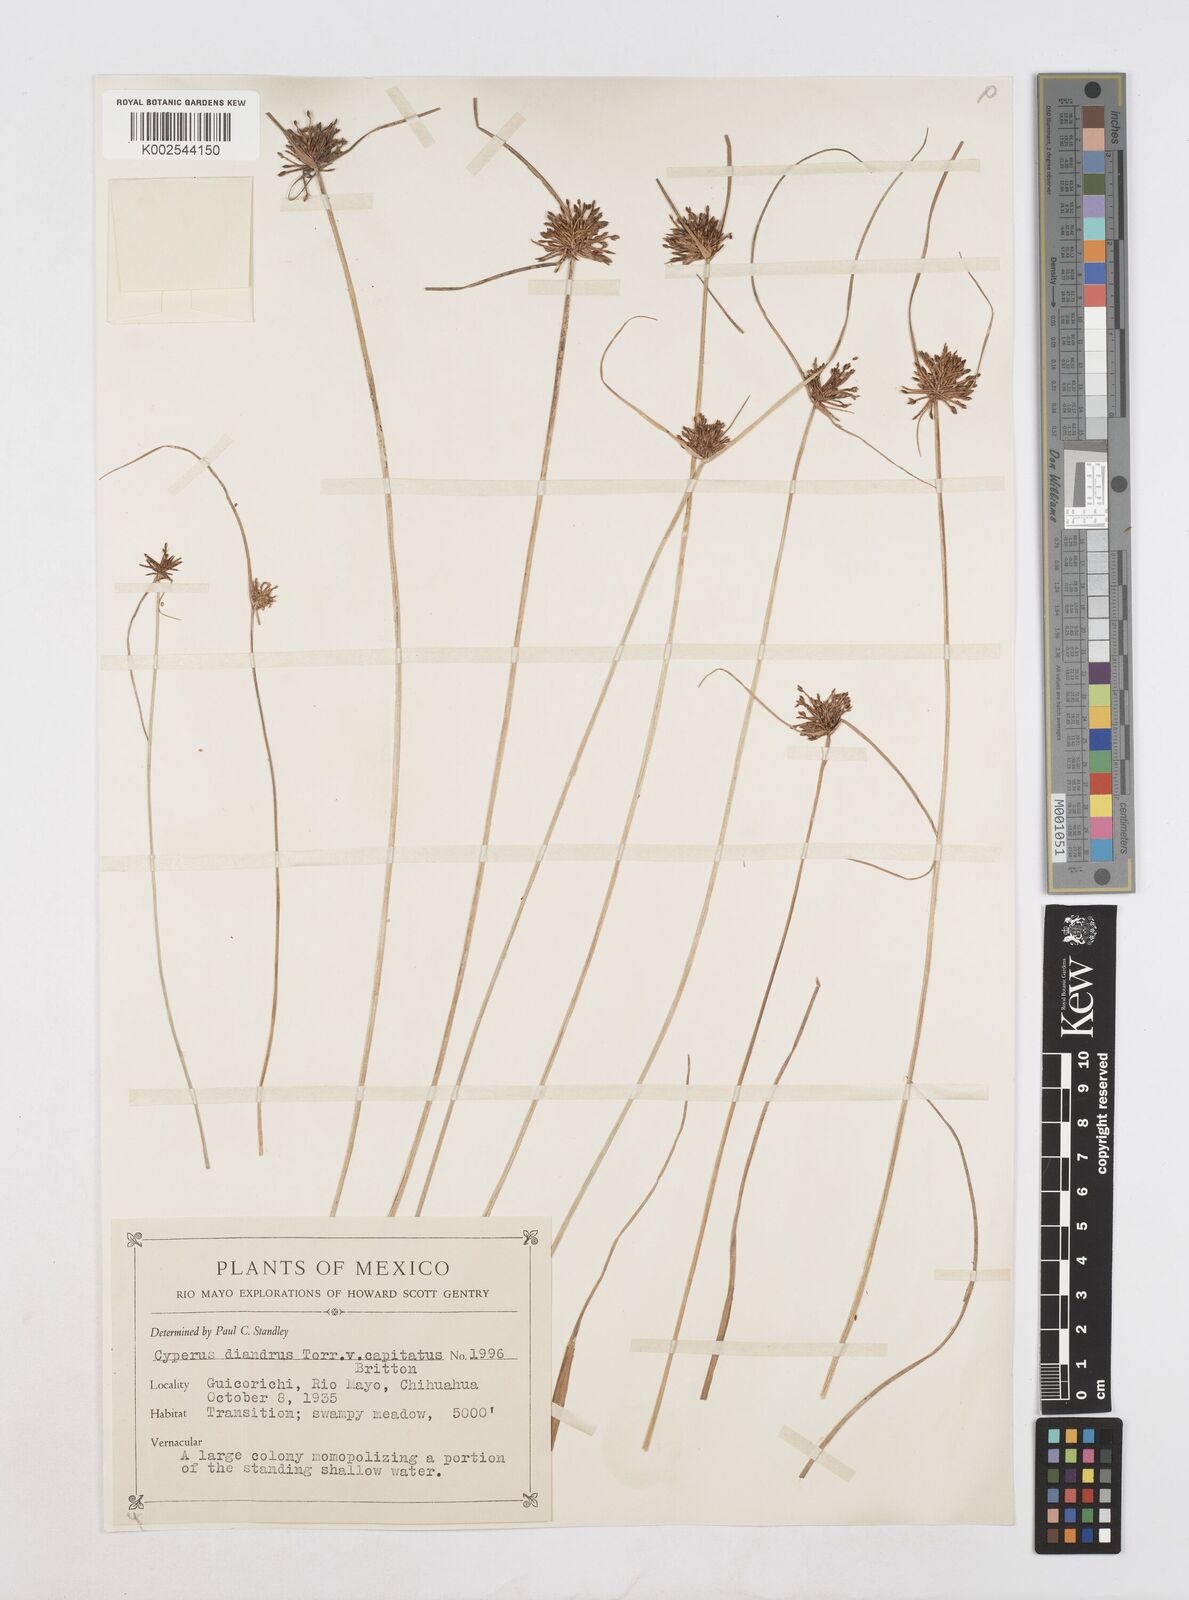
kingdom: Plantae
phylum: Tracheophyta
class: Liliopsida
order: Poales
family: Cyperaceae
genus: Cyperus
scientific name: Cyperus melanostachyus
